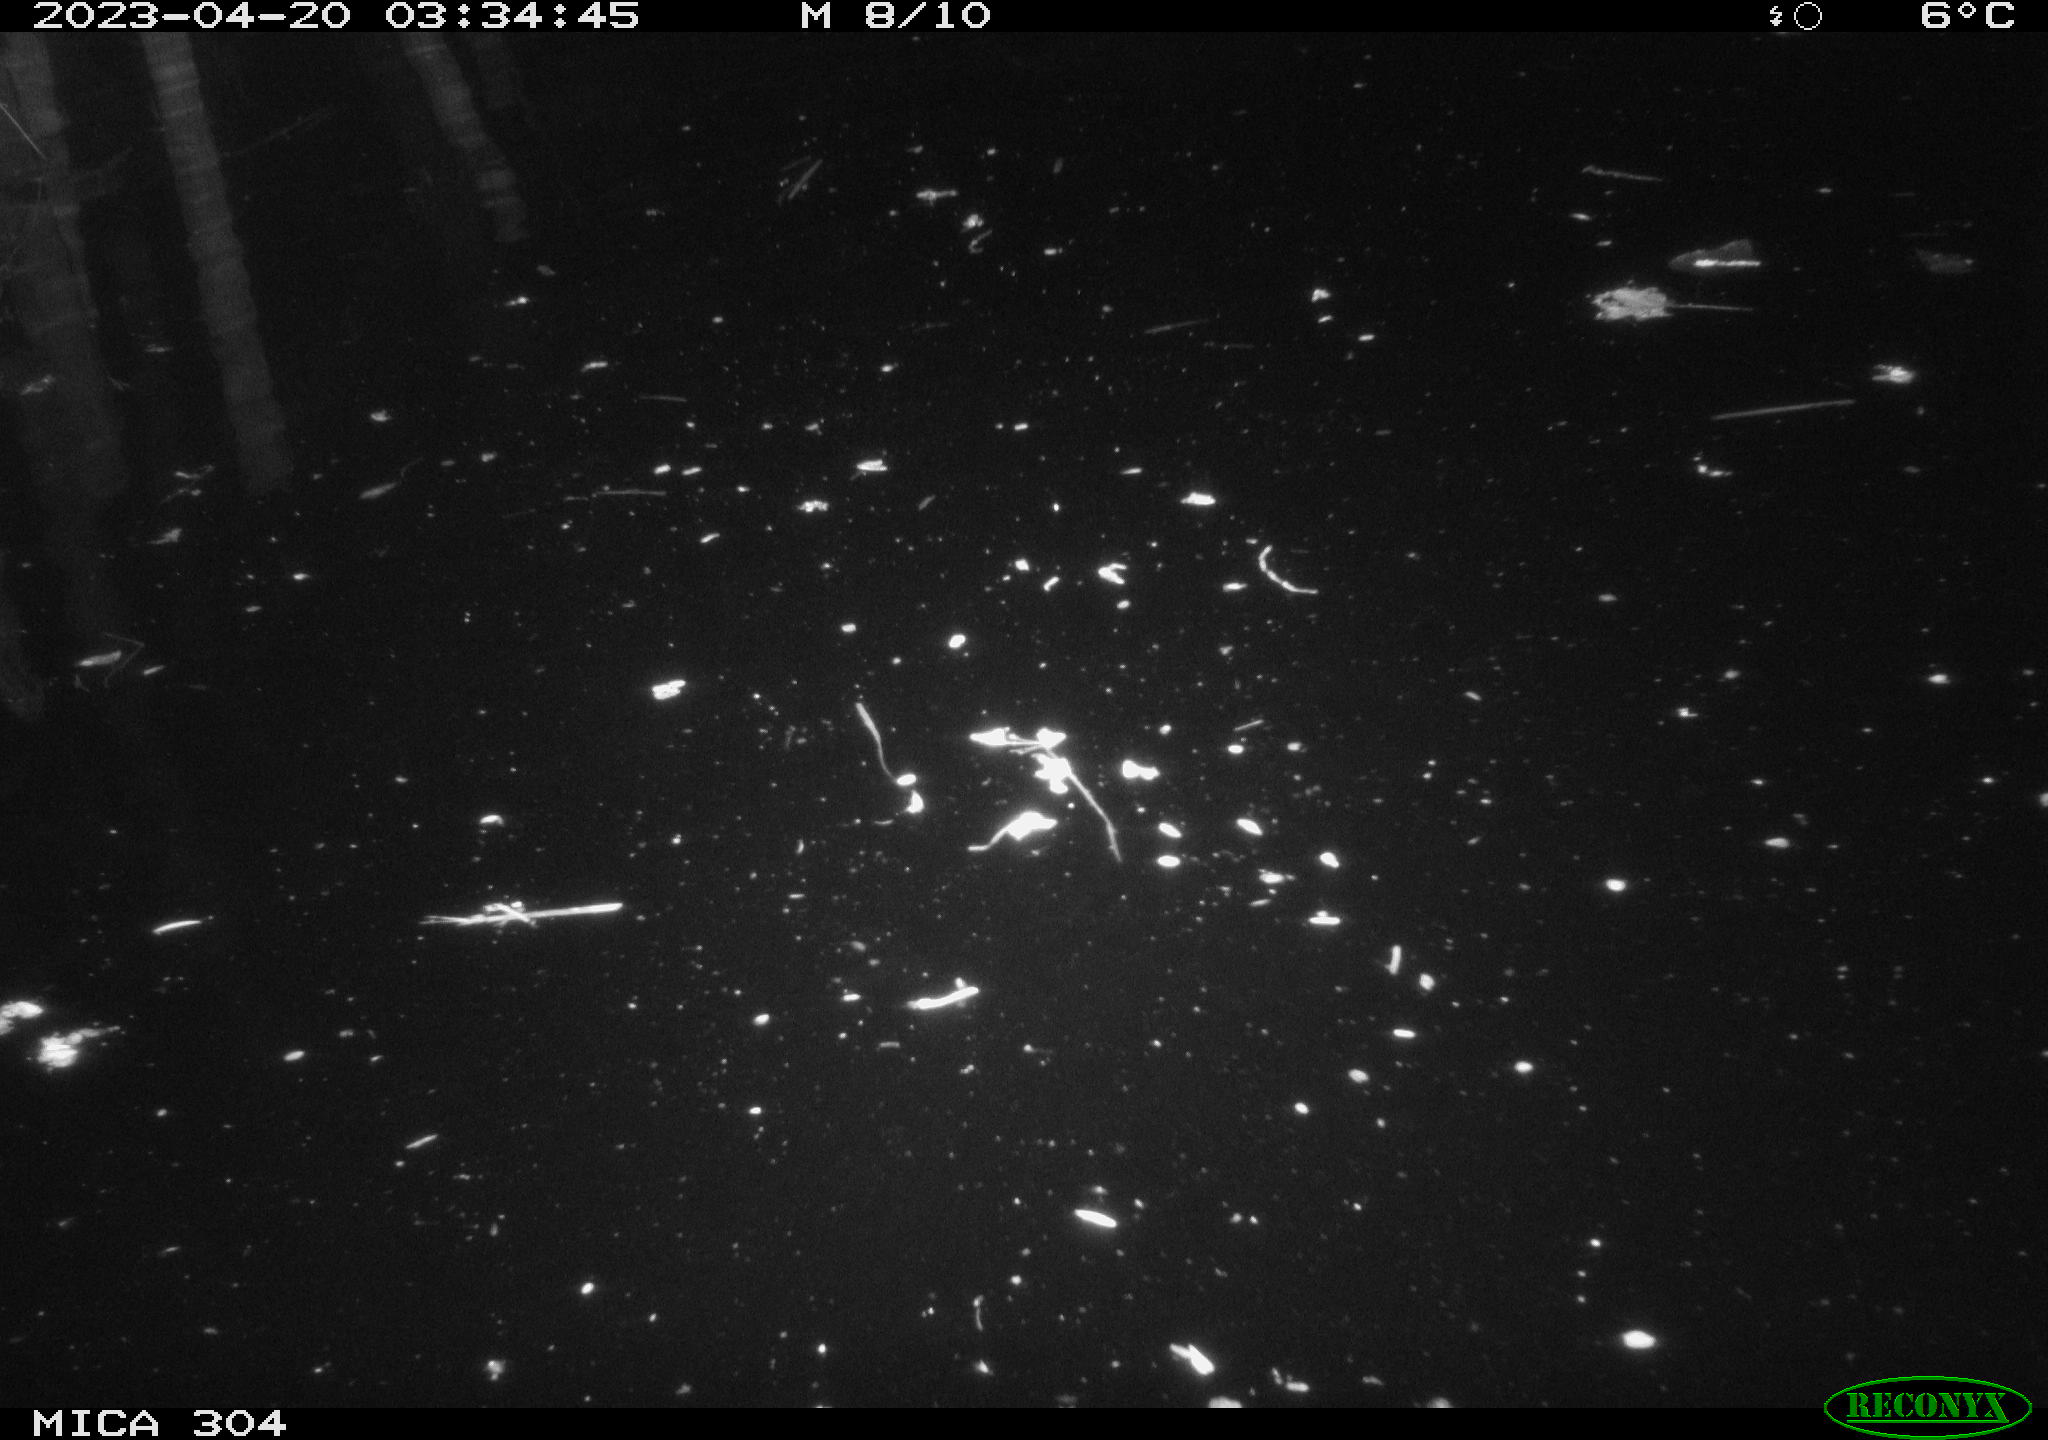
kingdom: Animalia
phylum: Chordata
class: Mammalia
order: Rodentia
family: Cricetidae
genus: Ondatra
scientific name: Ondatra zibethicus
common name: Muskrat
